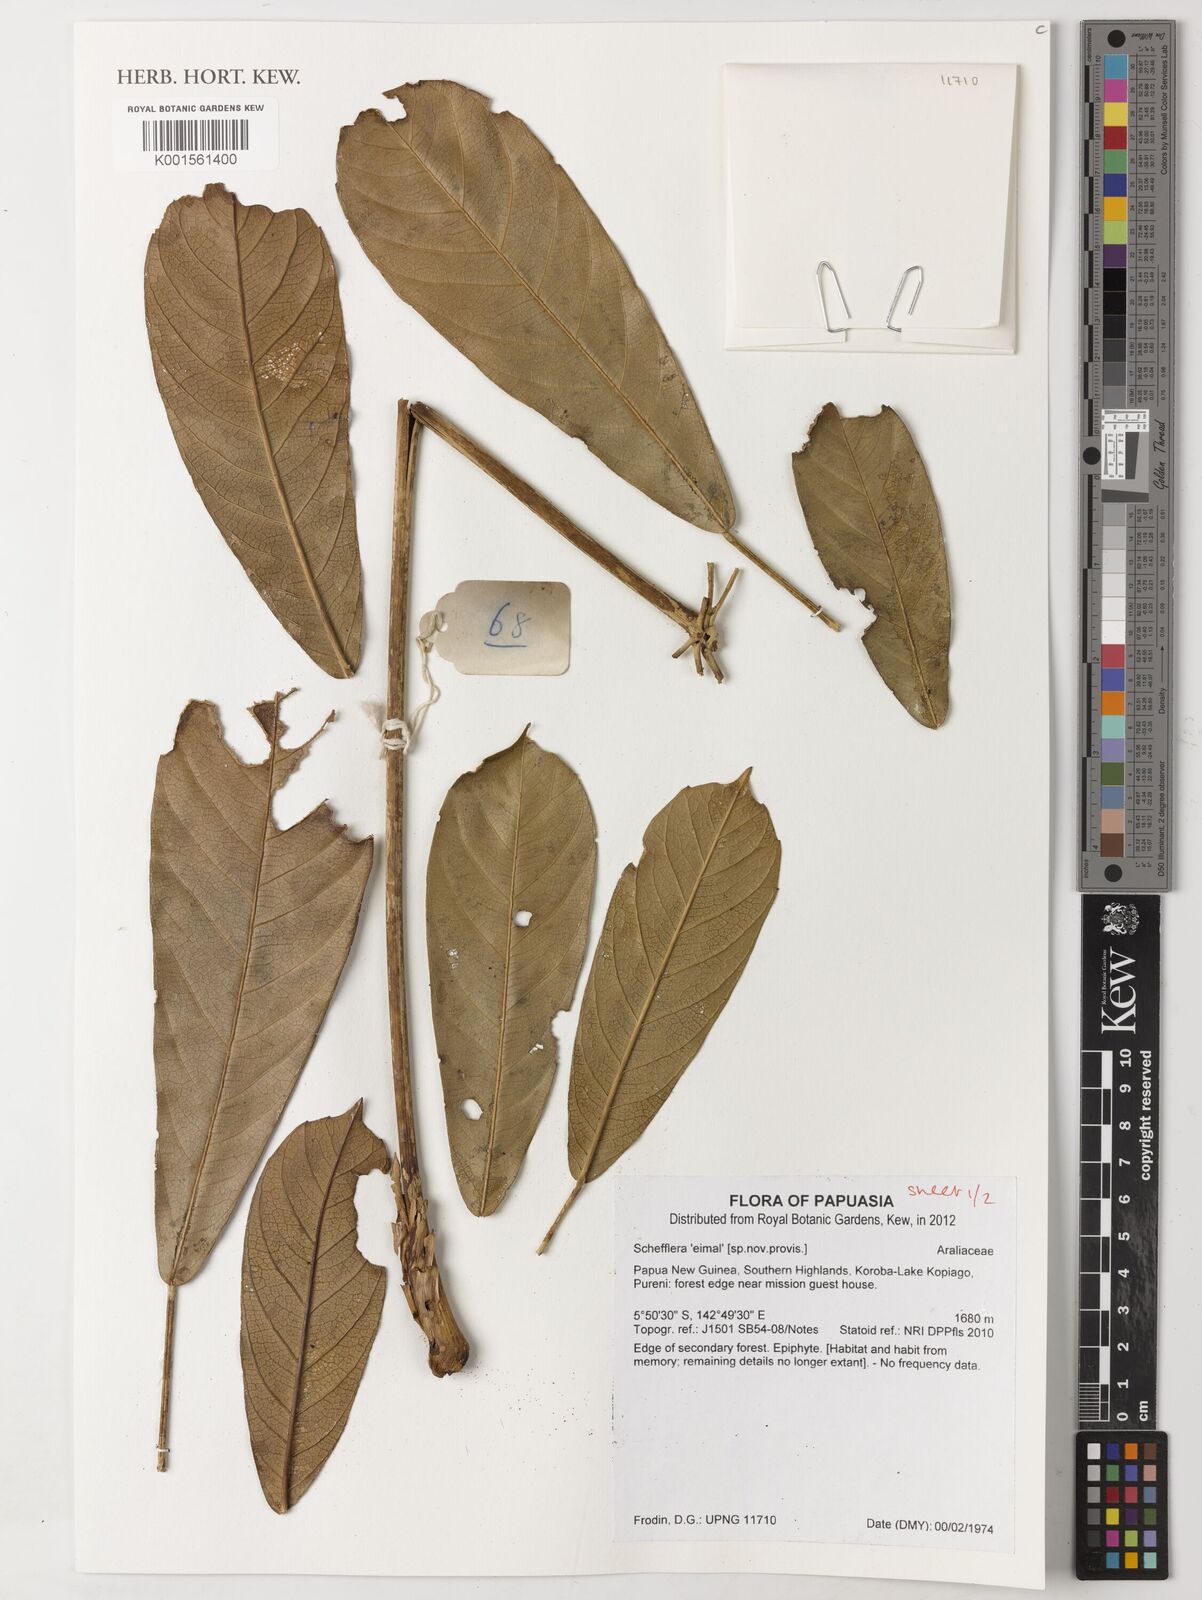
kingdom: Plantae
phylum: Tracheophyta
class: Magnoliopsida
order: Apiales
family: Araliaceae
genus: Schefflera
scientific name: Schefflera
